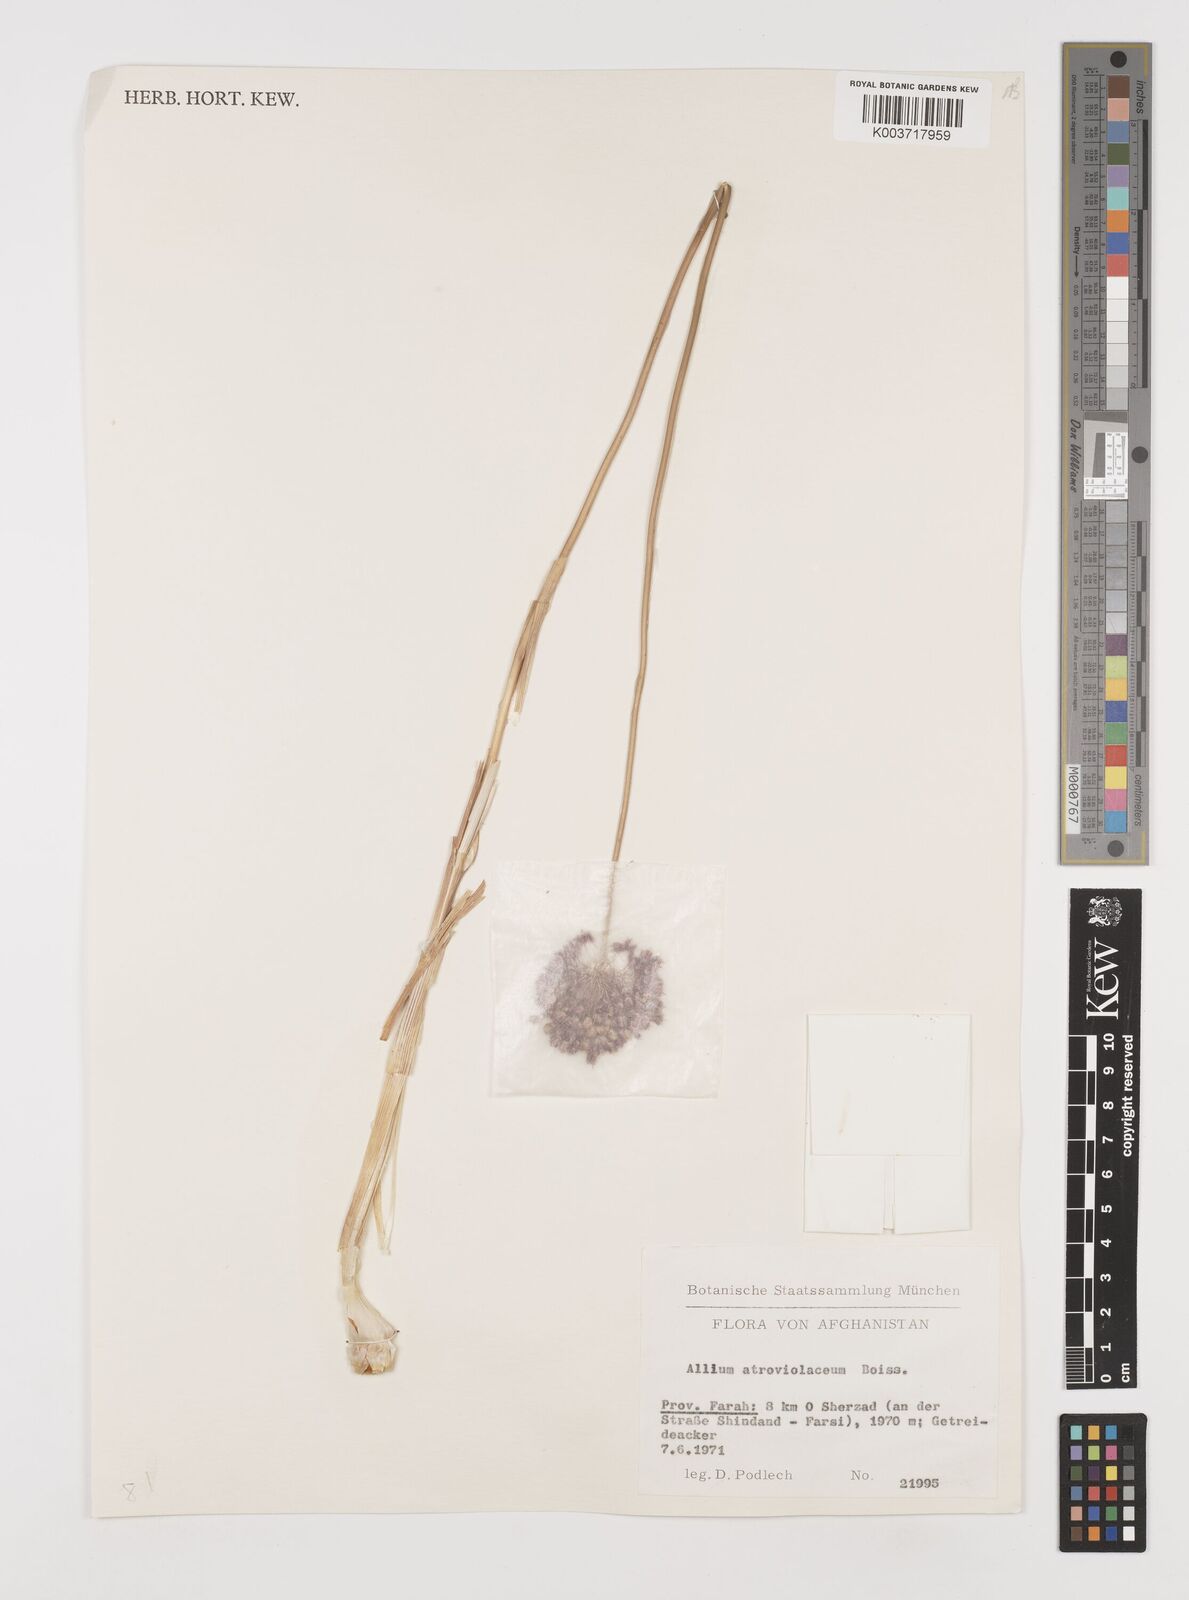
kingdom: Plantae
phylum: Tracheophyta
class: Liliopsida
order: Asparagales
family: Amaryllidaceae
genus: Allium
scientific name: Allium atroviolaceum
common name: Broadleaf wild leek
